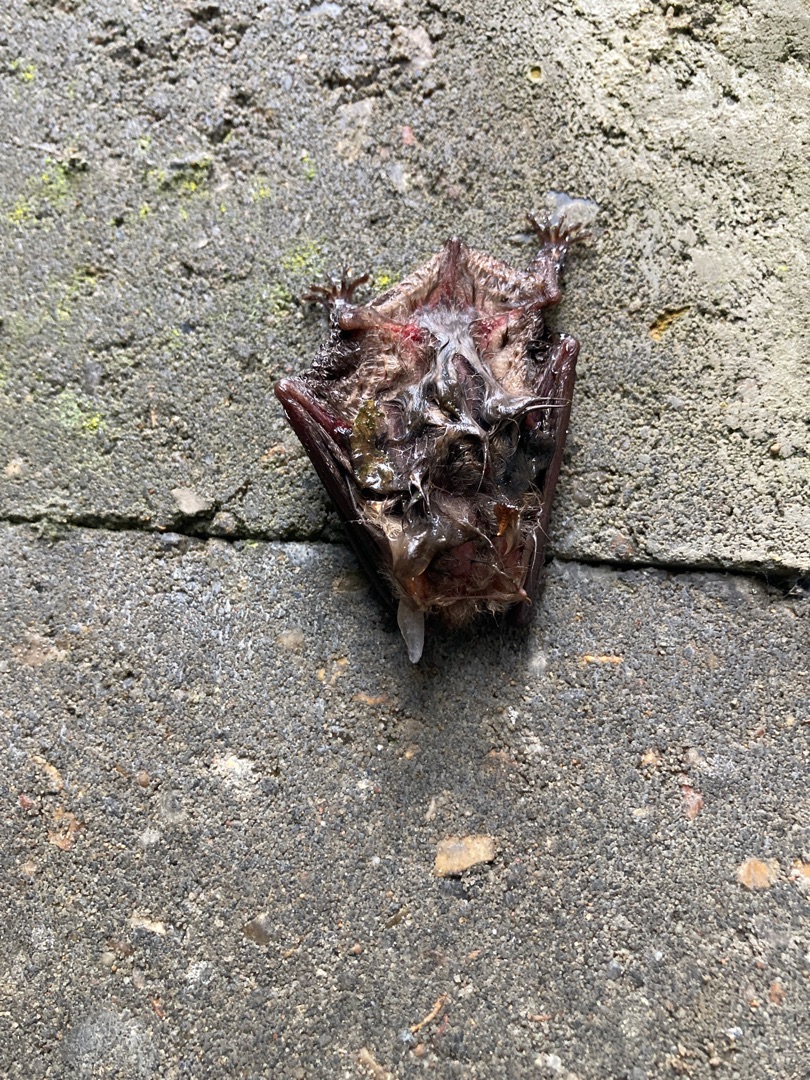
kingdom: Animalia
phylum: Chordata
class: Mammalia
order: Chiroptera
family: Vespertilionidae
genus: Plecotus
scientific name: Plecotus auritus
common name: Brun langøre
